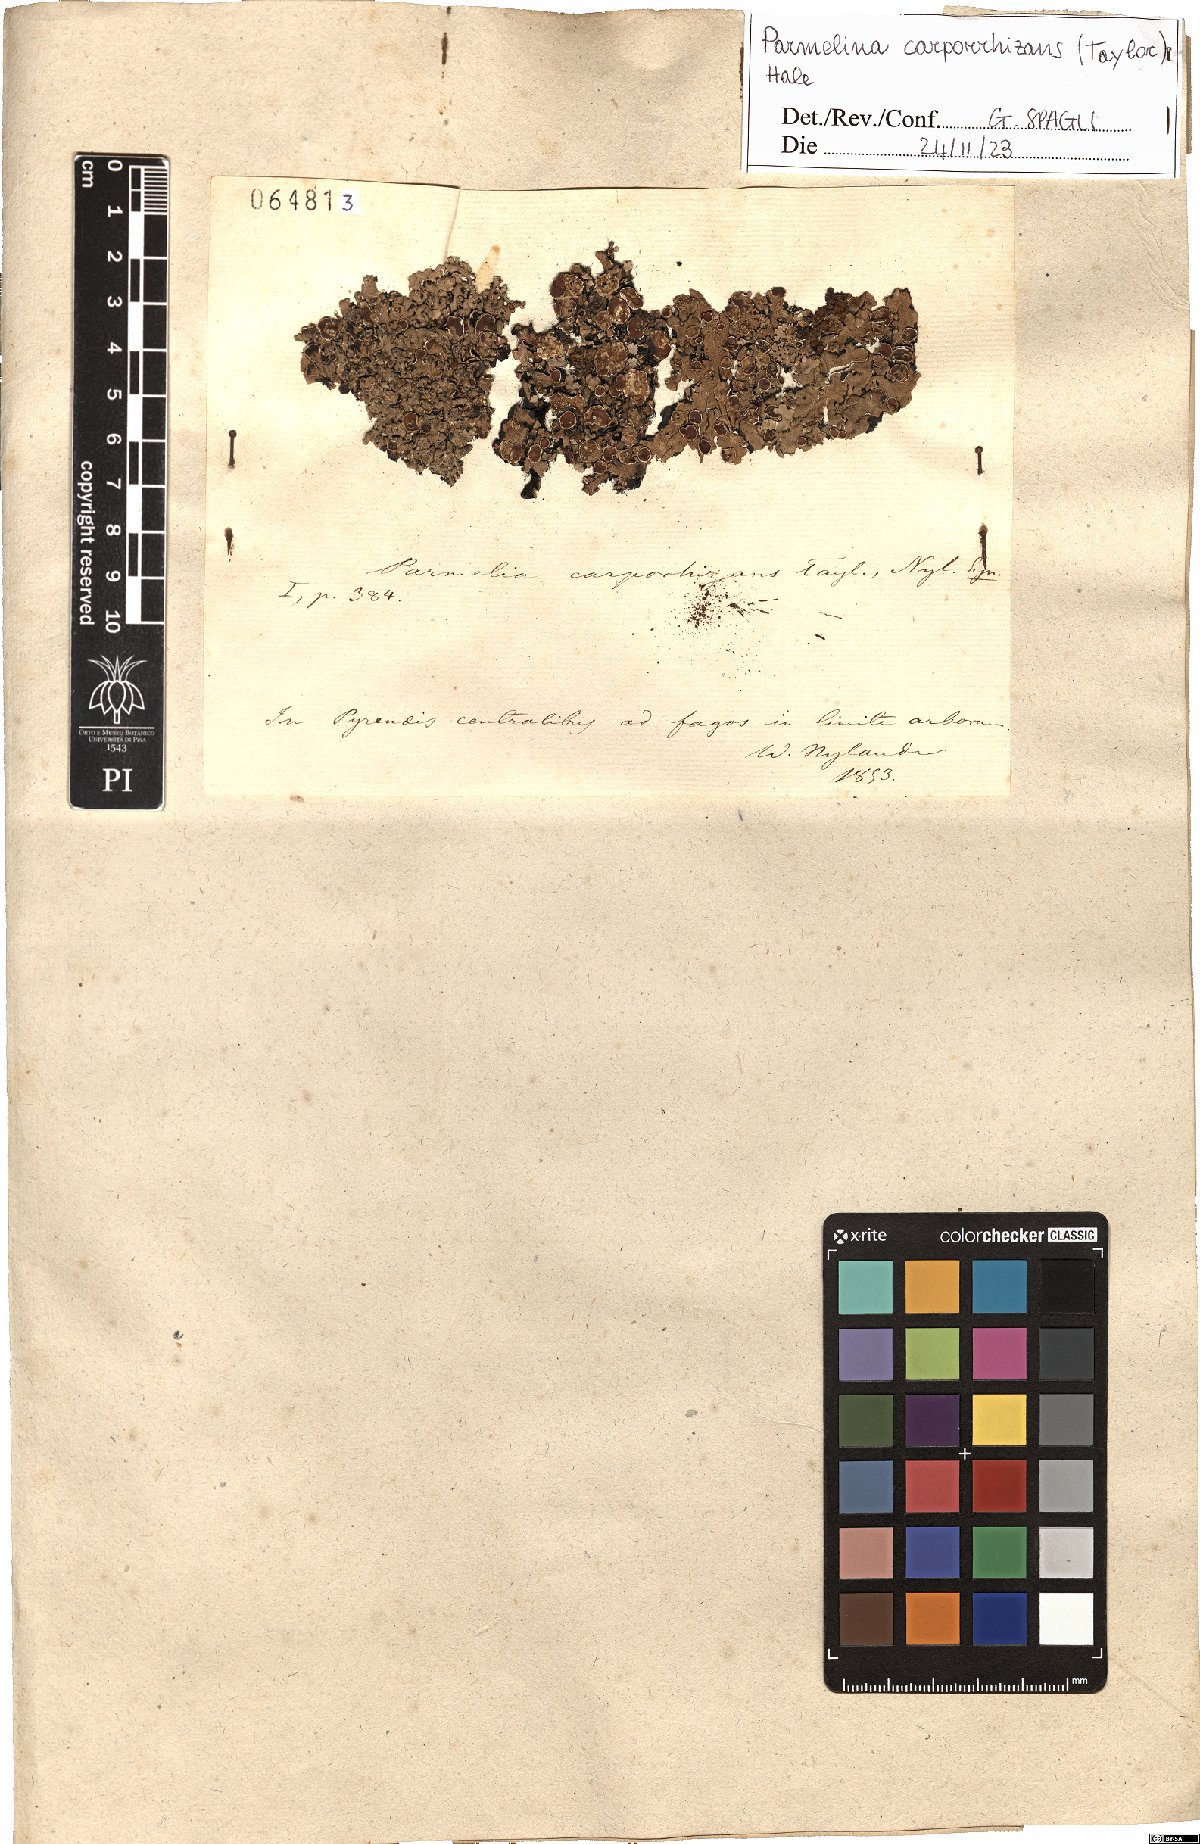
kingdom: Fungi
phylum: Ascomycota
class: Lecanoromycetes
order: Lecanorales
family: Parmeliaceae
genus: Parmelina
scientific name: Parmelina carporrhizans
